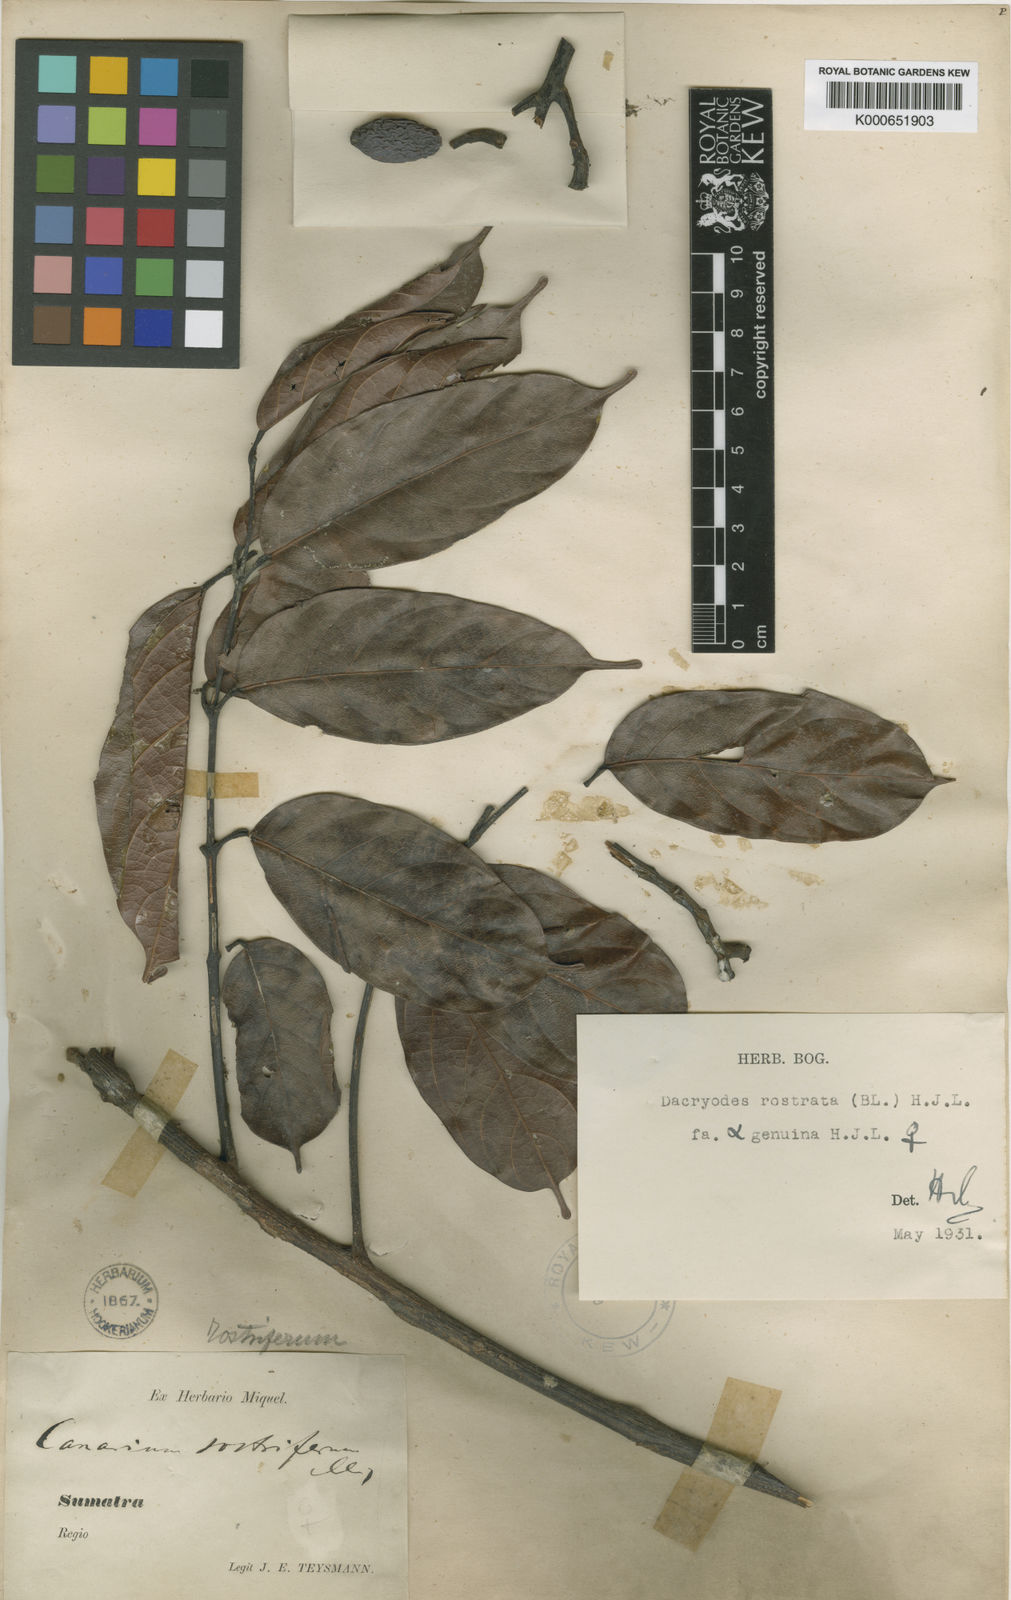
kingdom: Plantae
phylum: Tracheophyta
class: Magnoliopsida
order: Sapindales
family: Burseraceae
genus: Dacryodes
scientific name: Dacryodes rostrata
